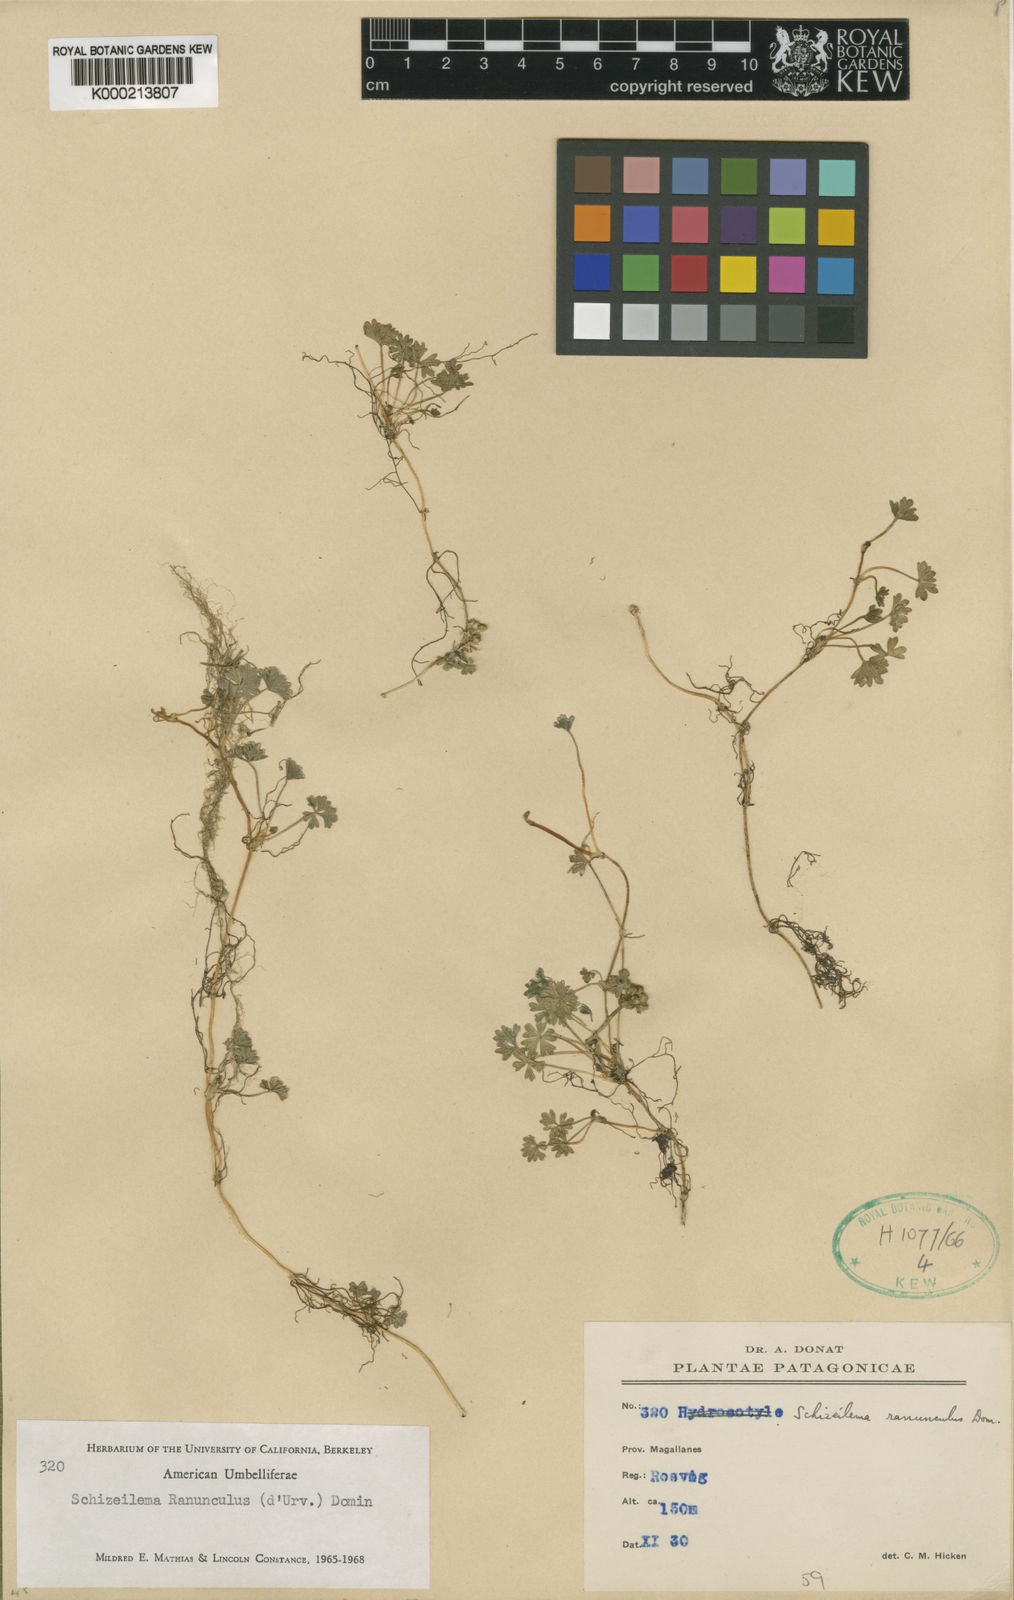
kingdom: Plantae
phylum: Tracheophyta
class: Magnoliopsida
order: Apiales
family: Apiaceae
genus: Azorella
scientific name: Azorella ranunculus
